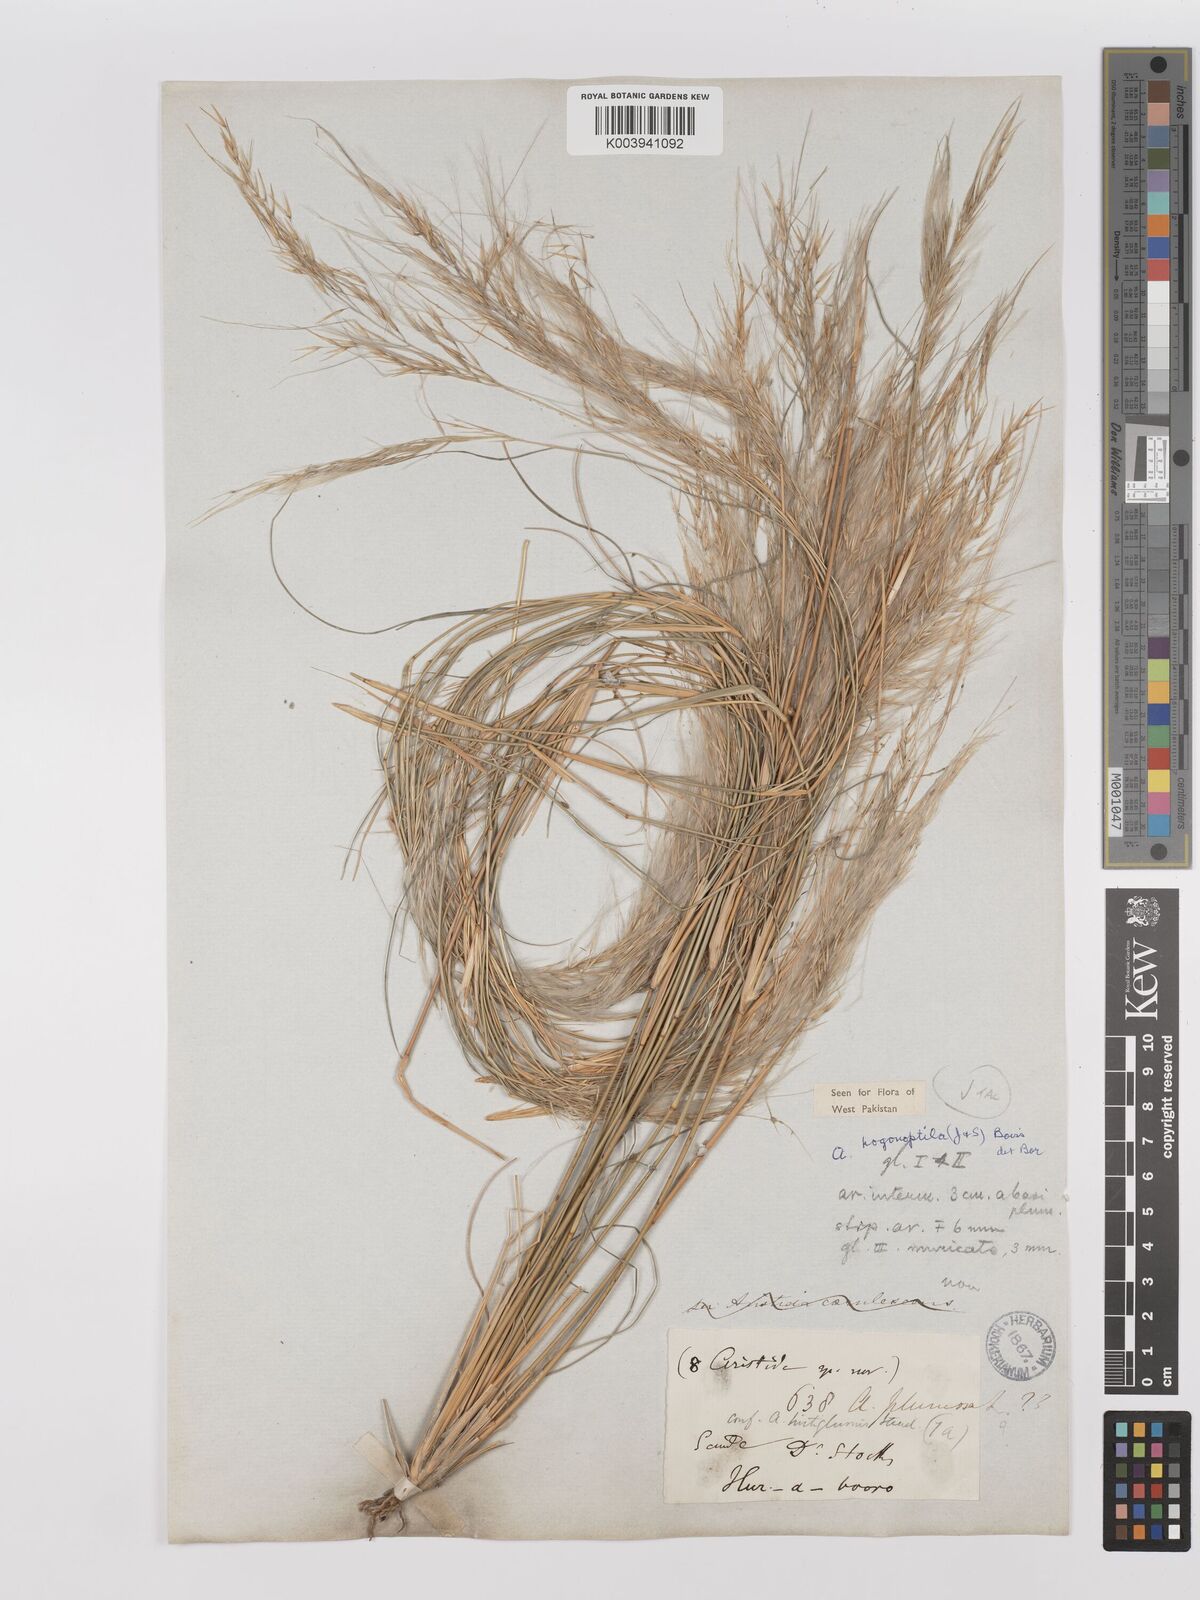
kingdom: Plantae
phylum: Tracheophyta
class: Liliopsida
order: Poales
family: Poaceae
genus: Stipagrostis
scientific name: Stipagrostis uniplumis
